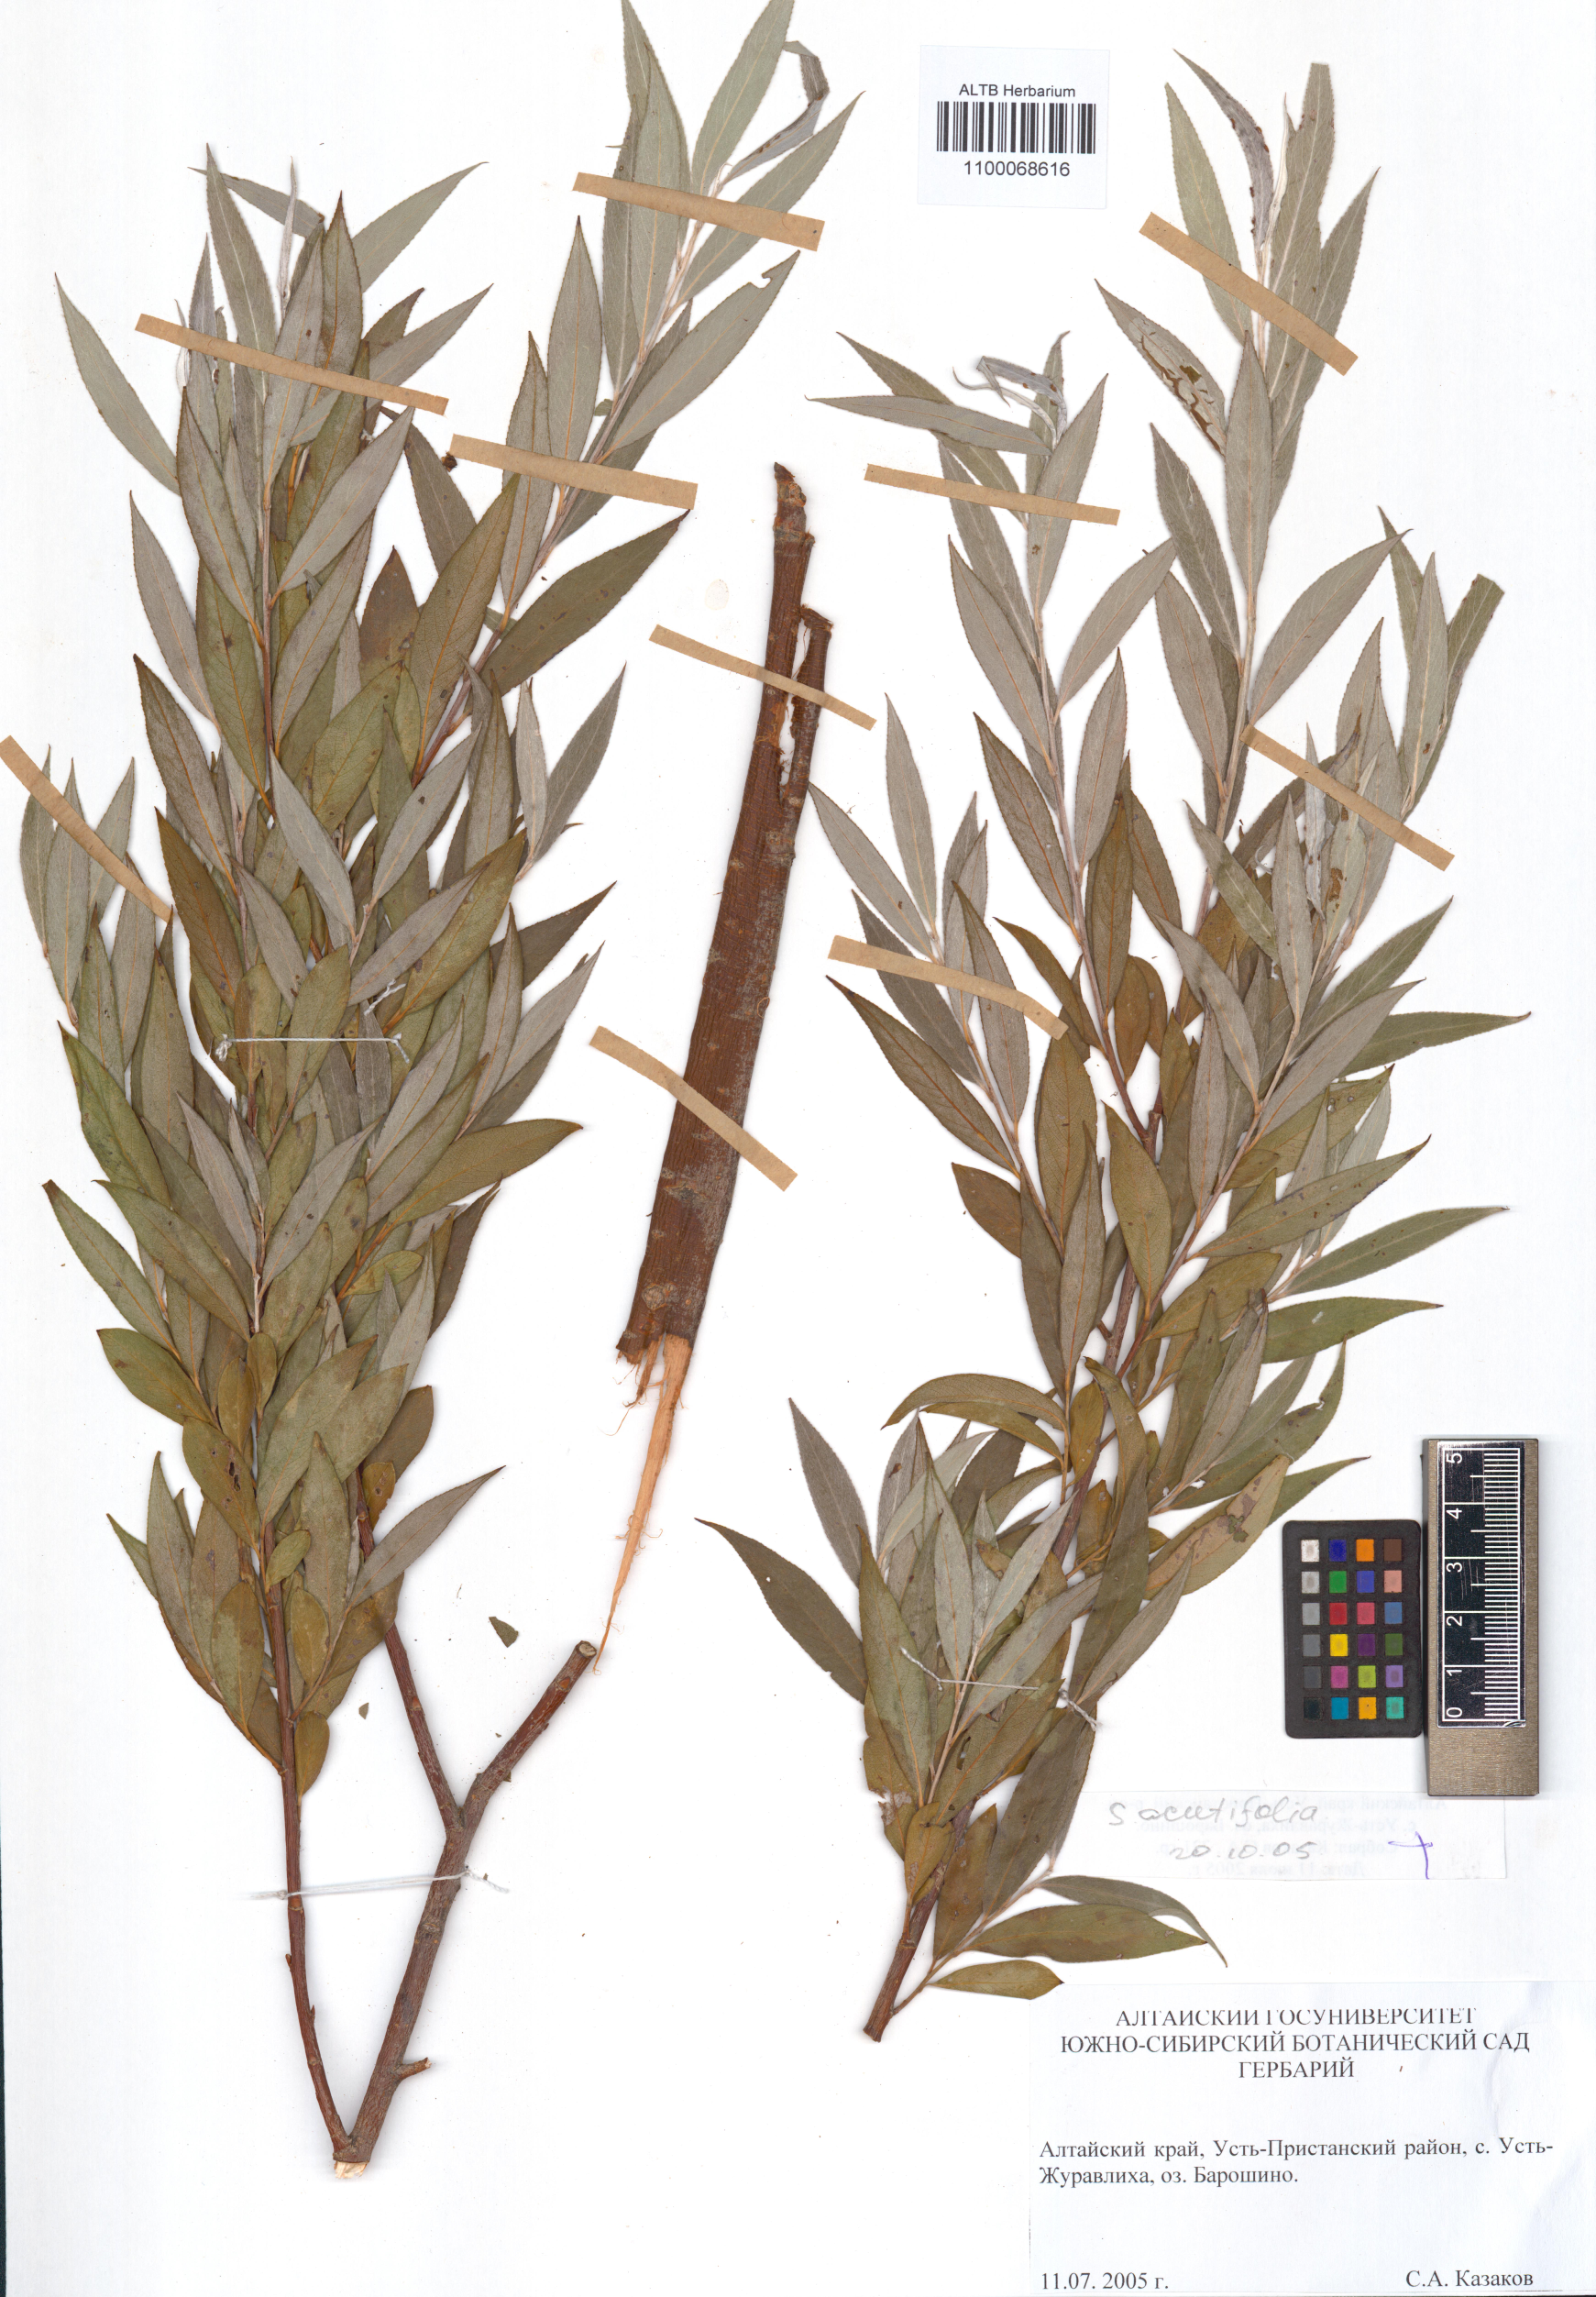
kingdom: Plantae
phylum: Tracheophyta
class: Magnoliopsida
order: Malpighiales
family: Salicaceae
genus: Salix
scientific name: Salix acutifolia
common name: Siberian violet-willow
